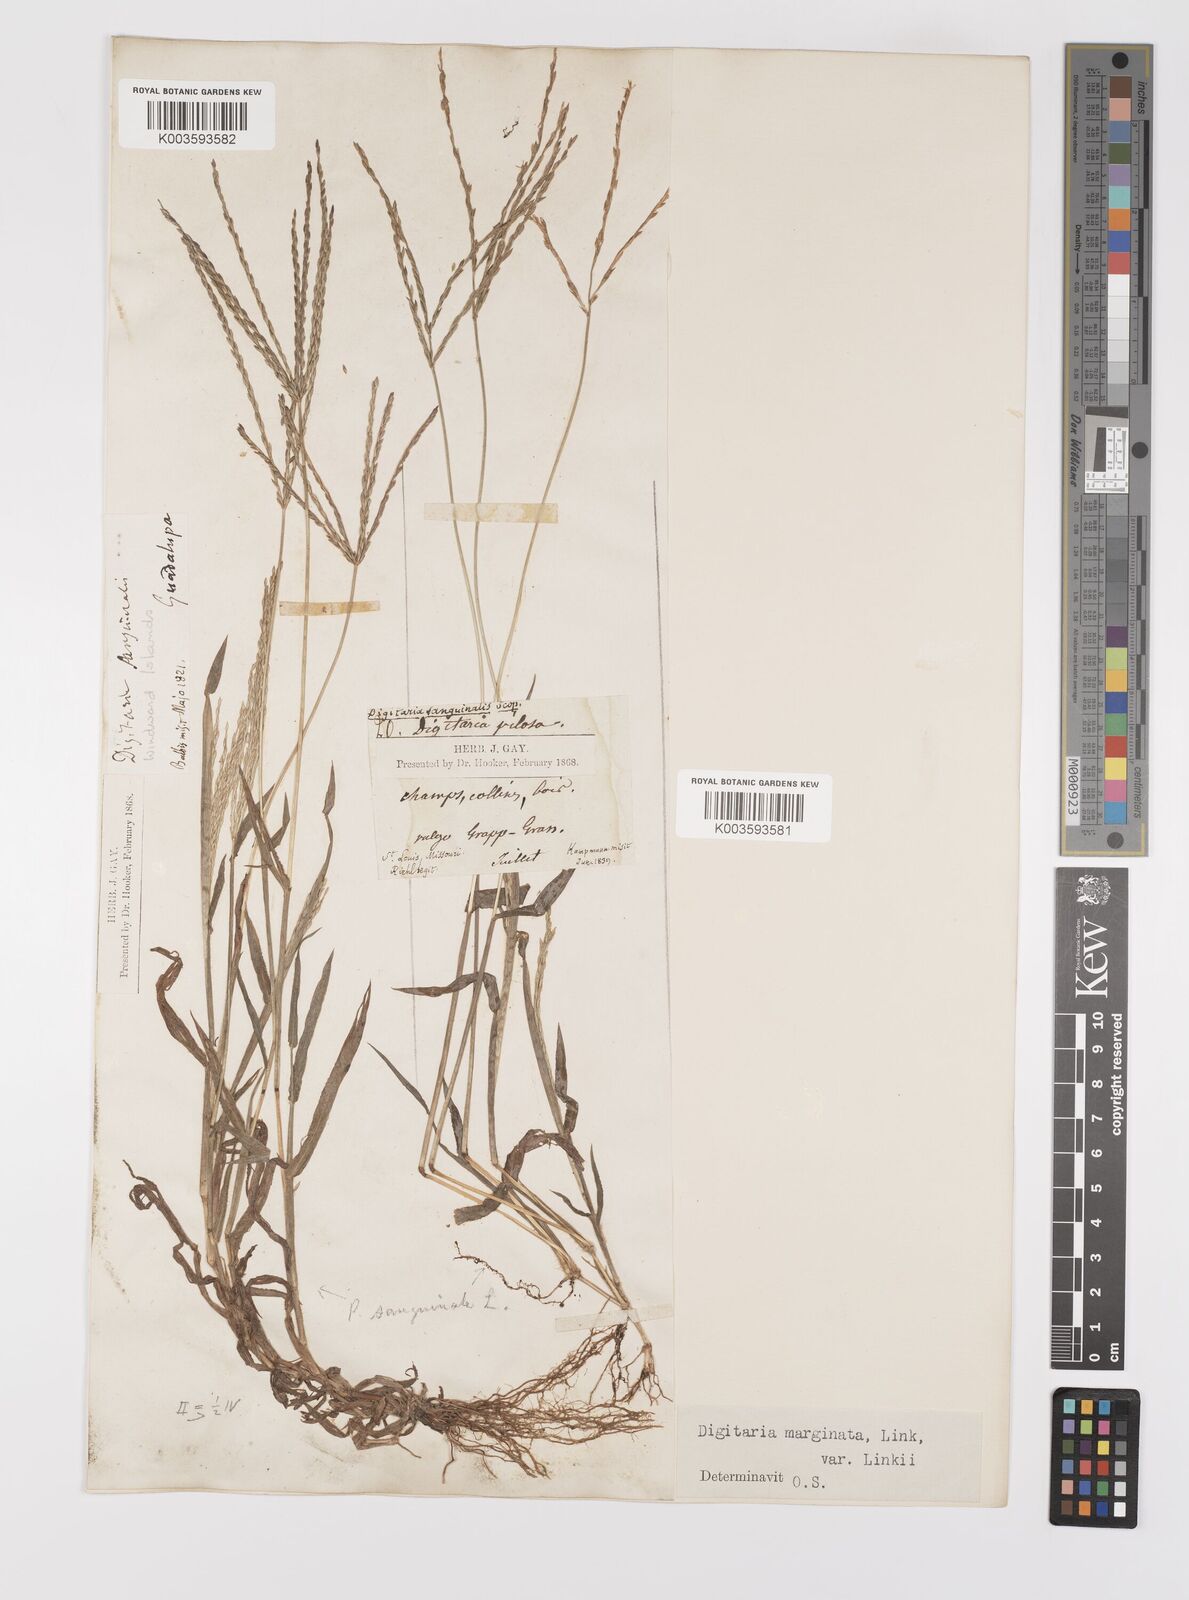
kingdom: Plantae
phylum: Tracheophyta
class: Liliopsida
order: Poales
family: Poaceae
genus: Digitaria
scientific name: Digitaria ciliaris
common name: Tropical finger-grass
